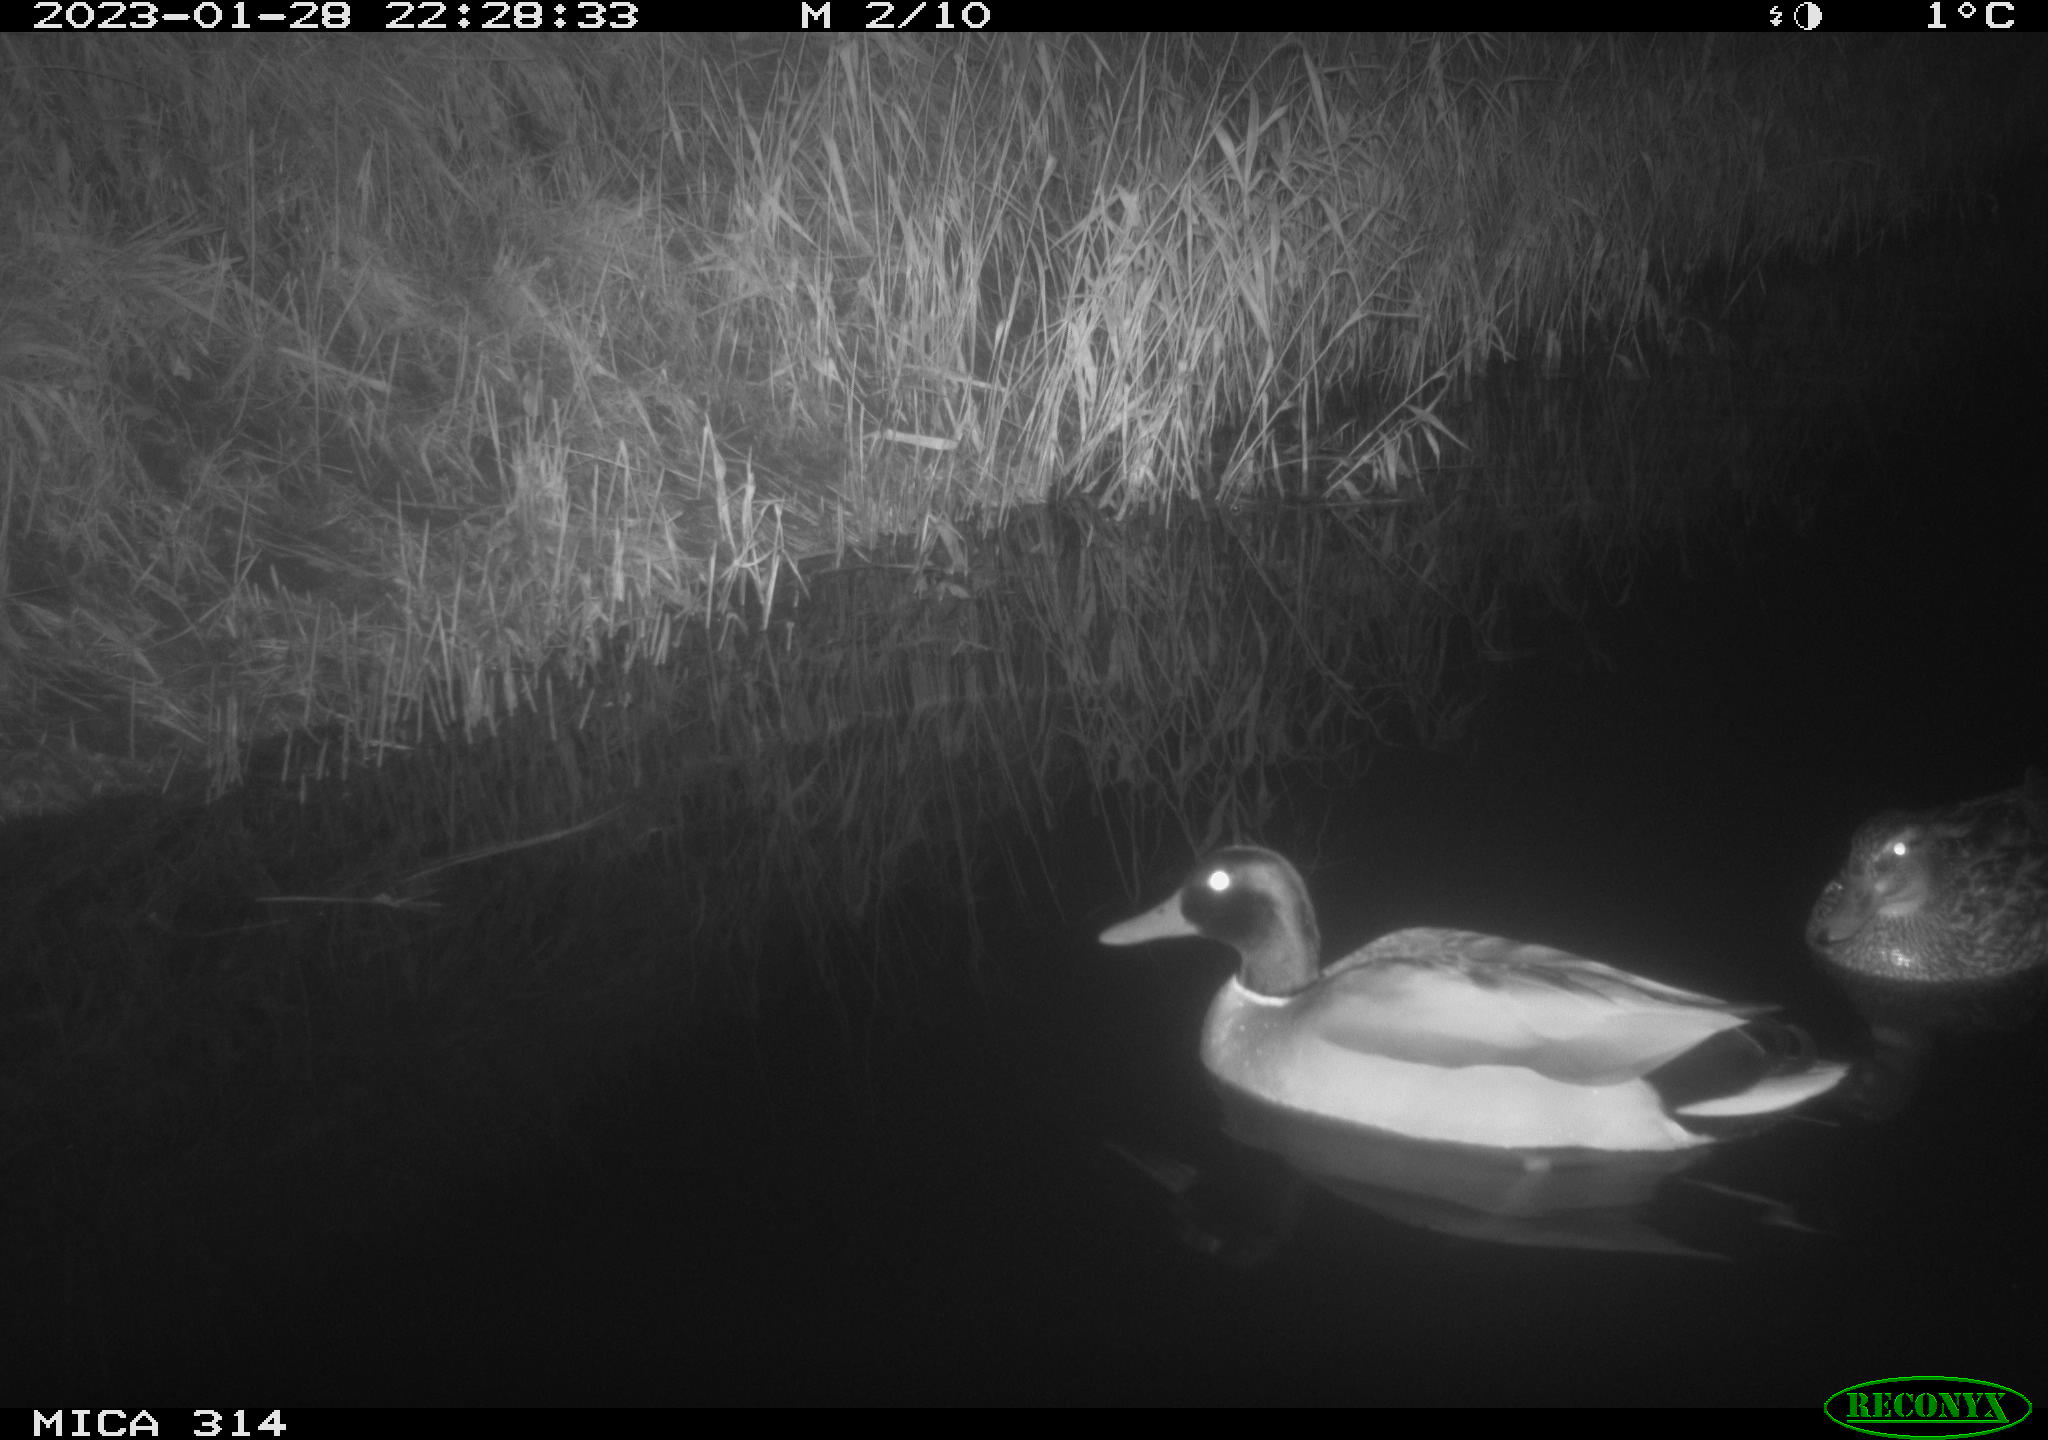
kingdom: Animalia
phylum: Chordata
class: Aves
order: Anseriformes
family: Anatidae
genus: Anas
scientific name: Anas
